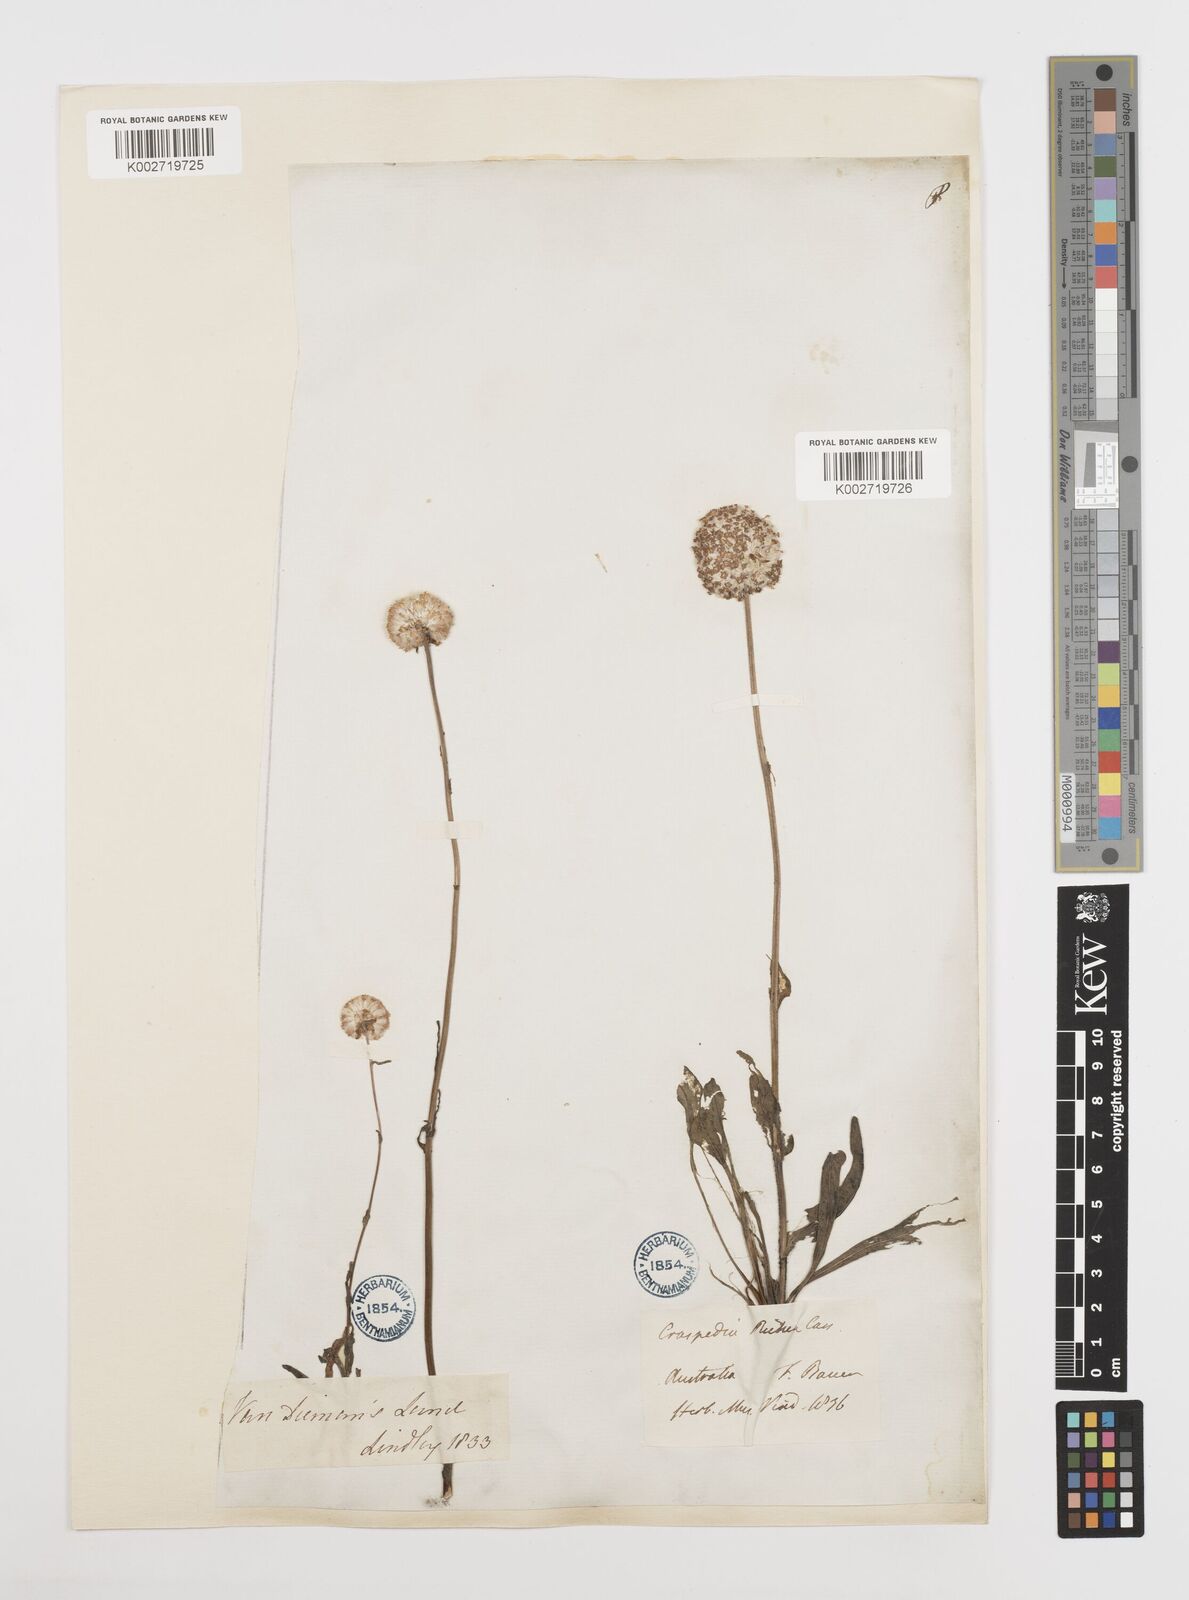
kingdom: Plantae
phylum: Tracheophyta
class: Magnoliopsida
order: Asterales
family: Asteraceae
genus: Craspedia
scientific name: Craspedia glauca
